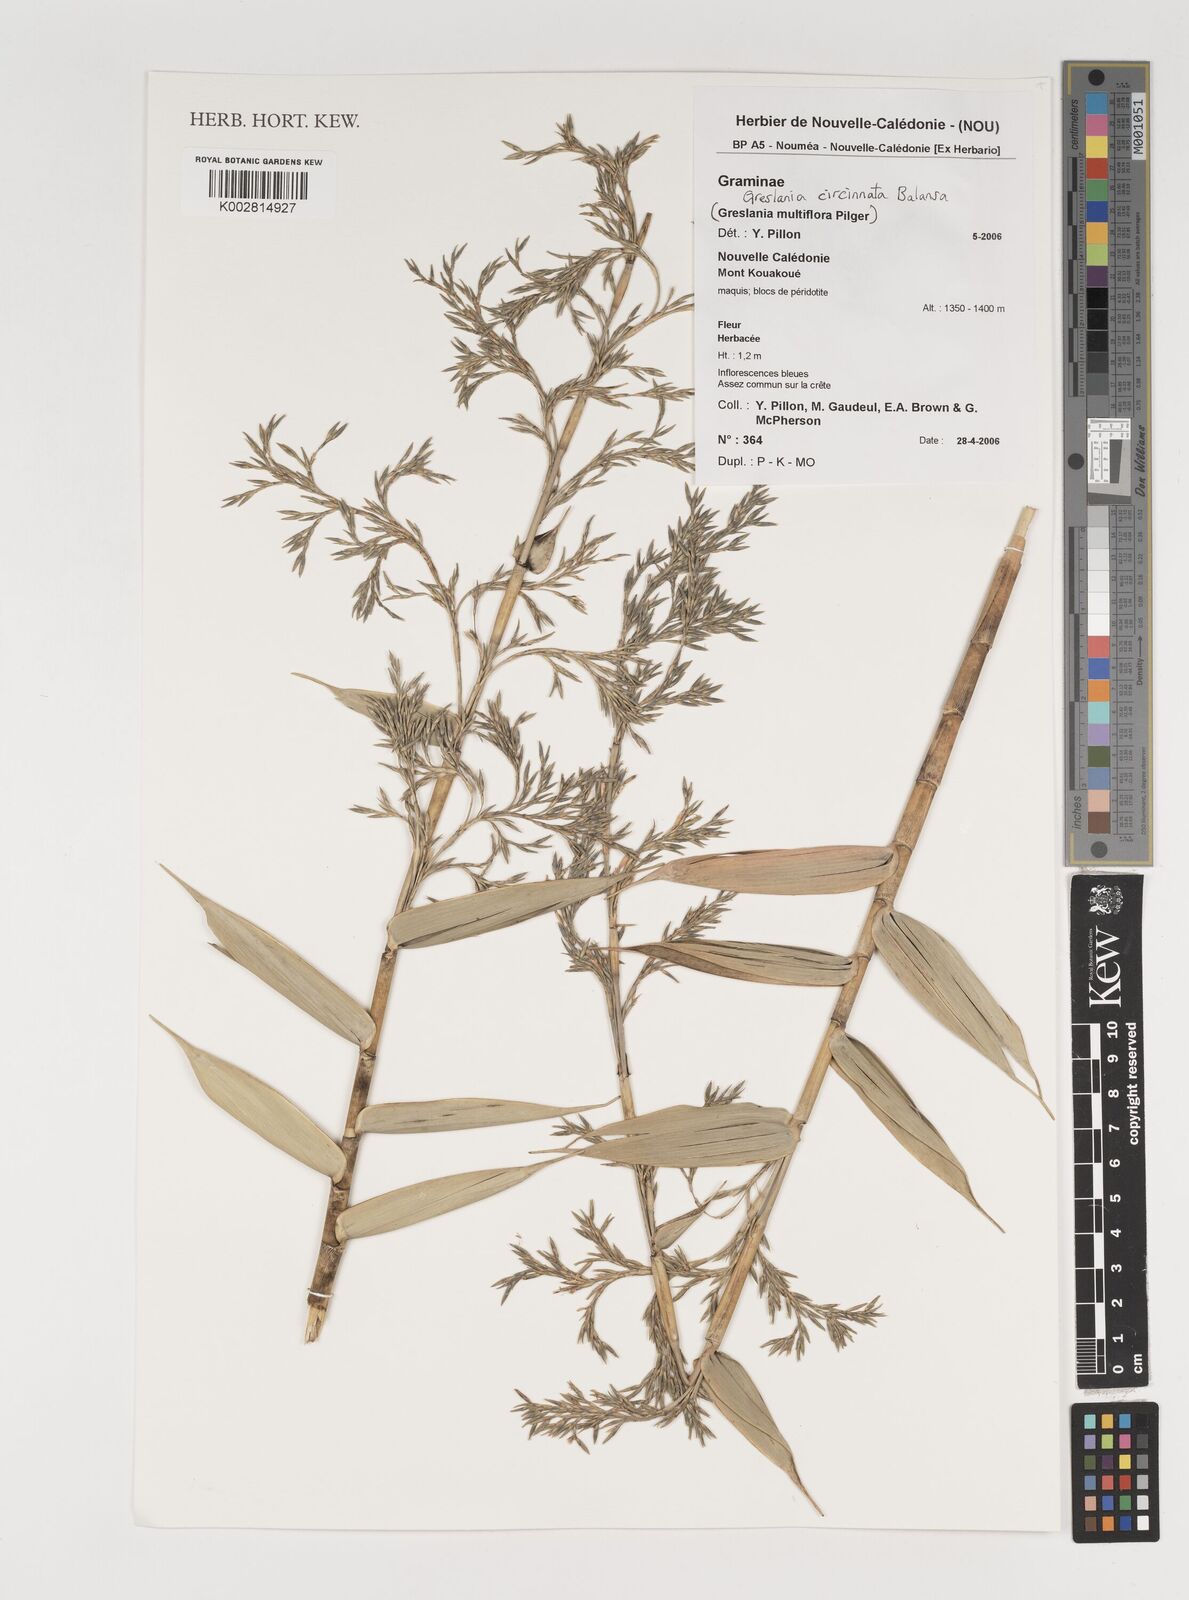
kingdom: Plantae
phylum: Tracheophyta
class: Liliopsida
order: Poales
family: Poaceae
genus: Greslania
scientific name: Greslania circinata
